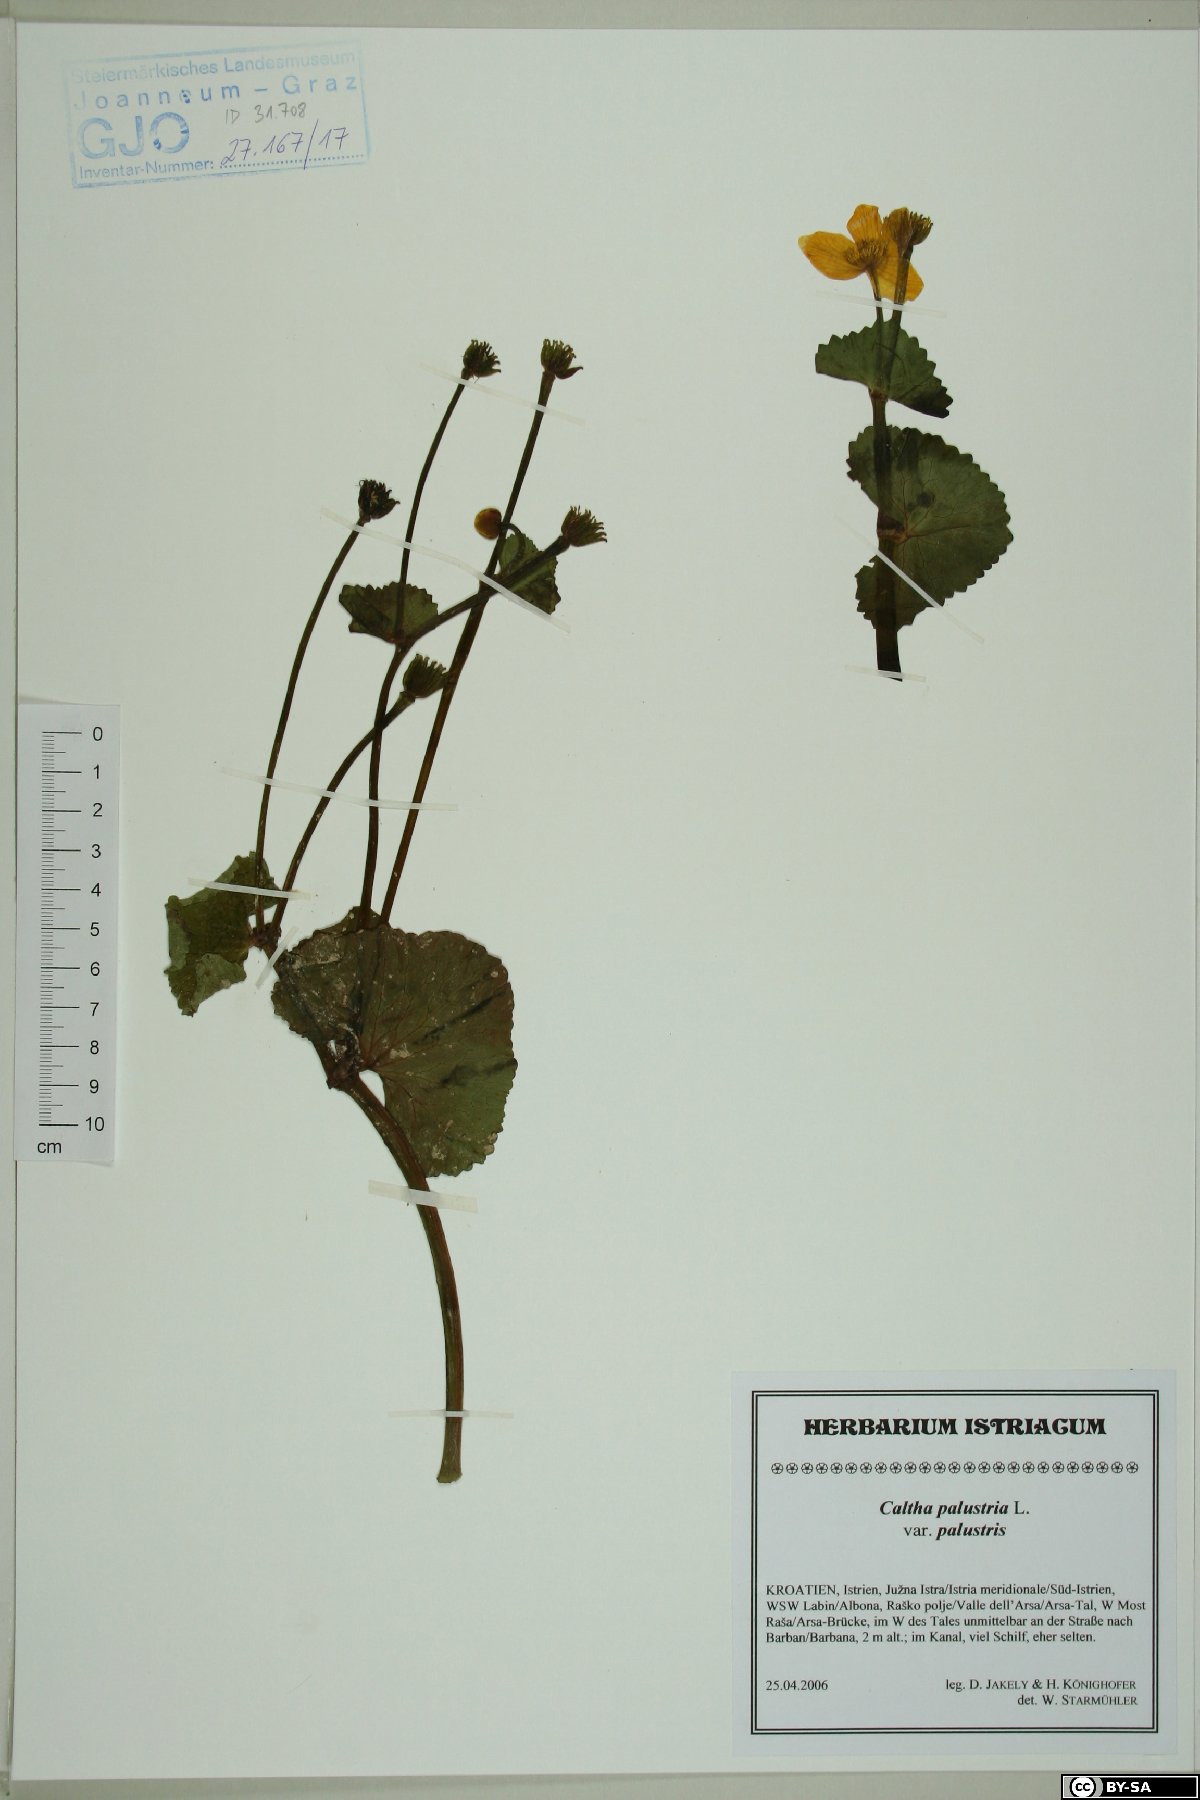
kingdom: Plantae
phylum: Tracheophyta
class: Magnoliopsida
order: Ranunculales
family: Ranunculaceae
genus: Caltha
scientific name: Caltha palustris
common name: Marsh marigold
